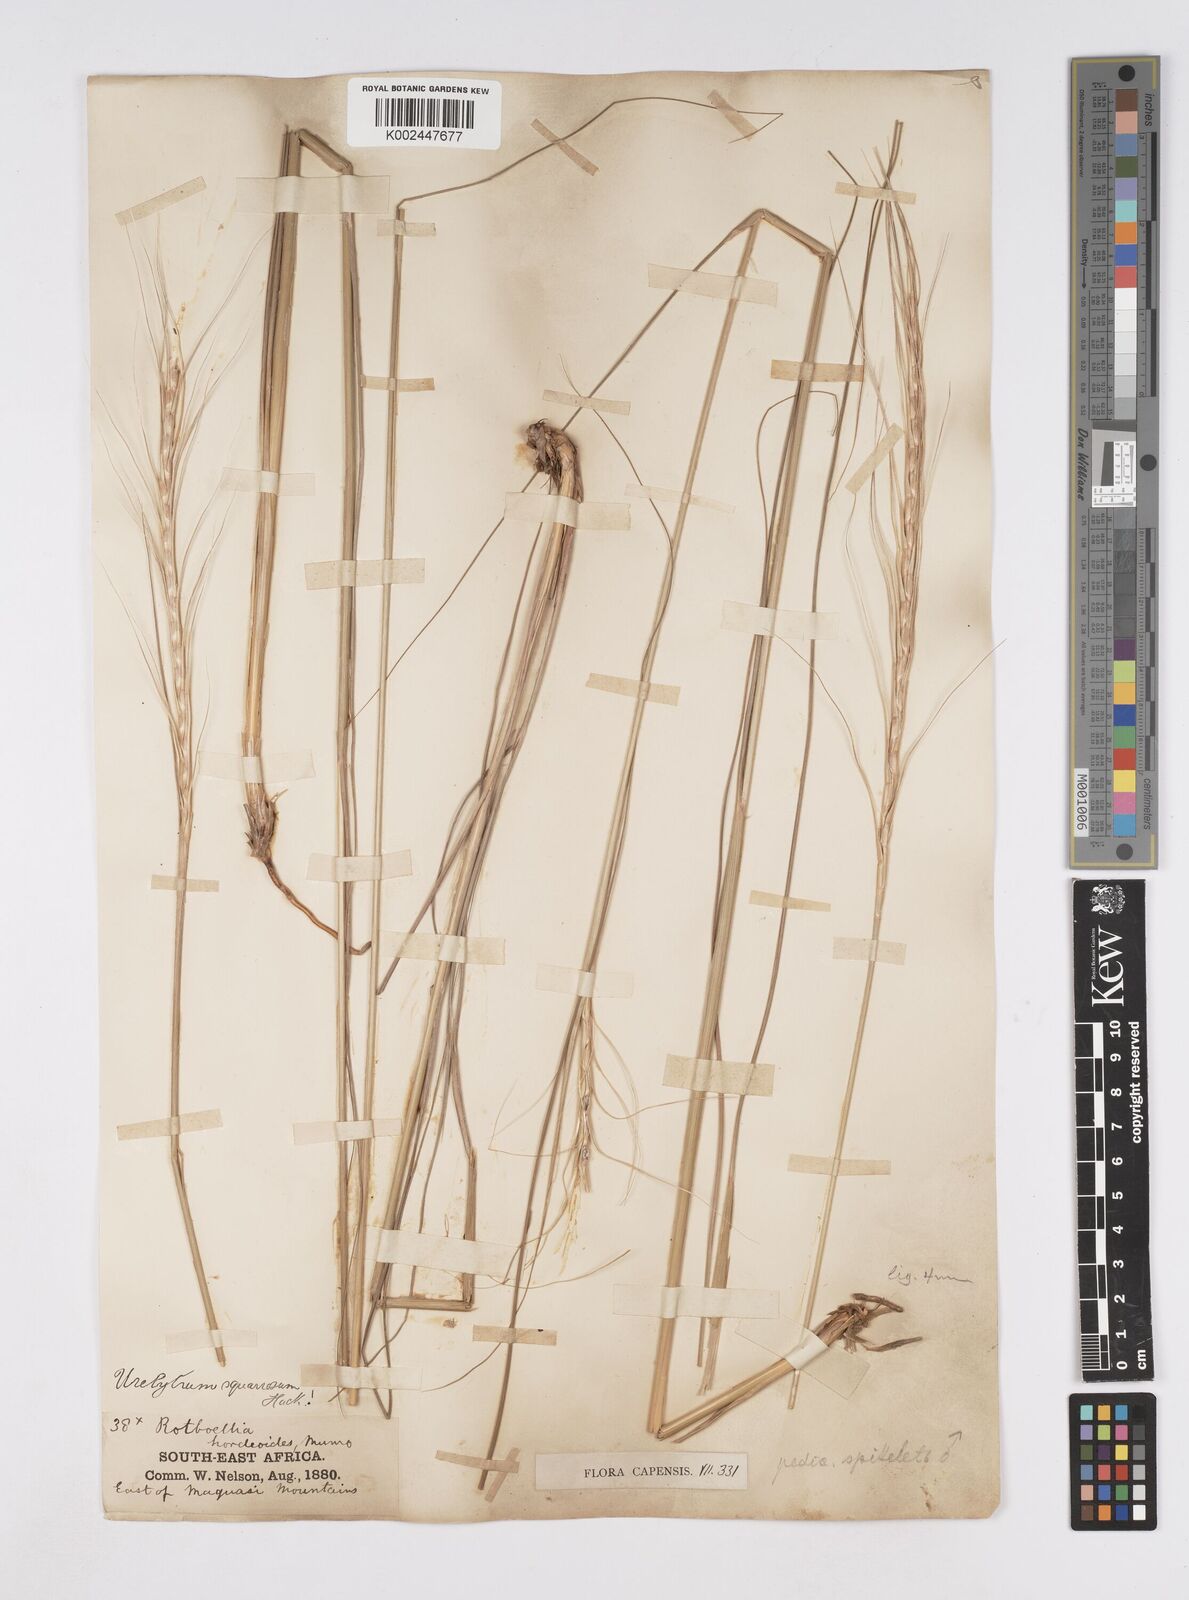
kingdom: Plantae
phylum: Tracheophyta
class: Liliopsida
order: Poales
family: Poaceae
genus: Urelytrum
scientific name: Urelytrum agropyroides
